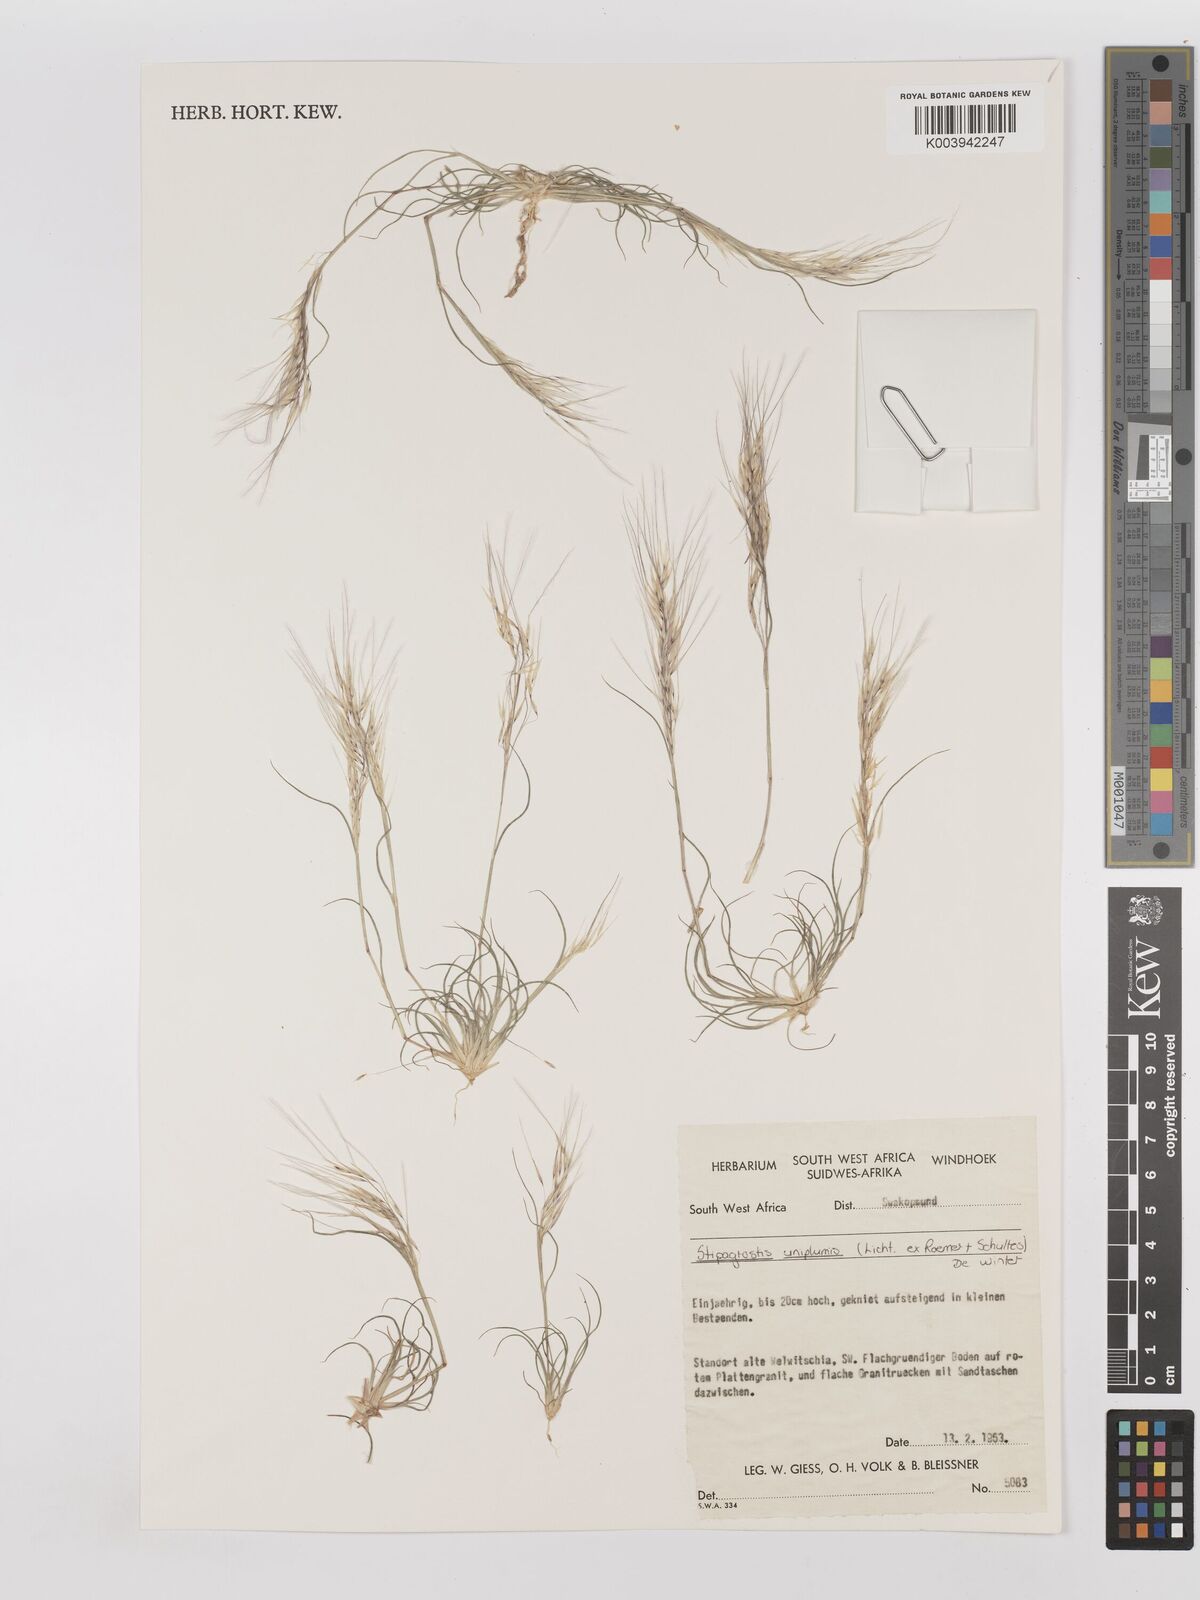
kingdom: Plantae
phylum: Tracheophyta
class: Liliopsida
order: Poales
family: Poaceae
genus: Stipagrostis
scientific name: Stipagrostis uniplumis
